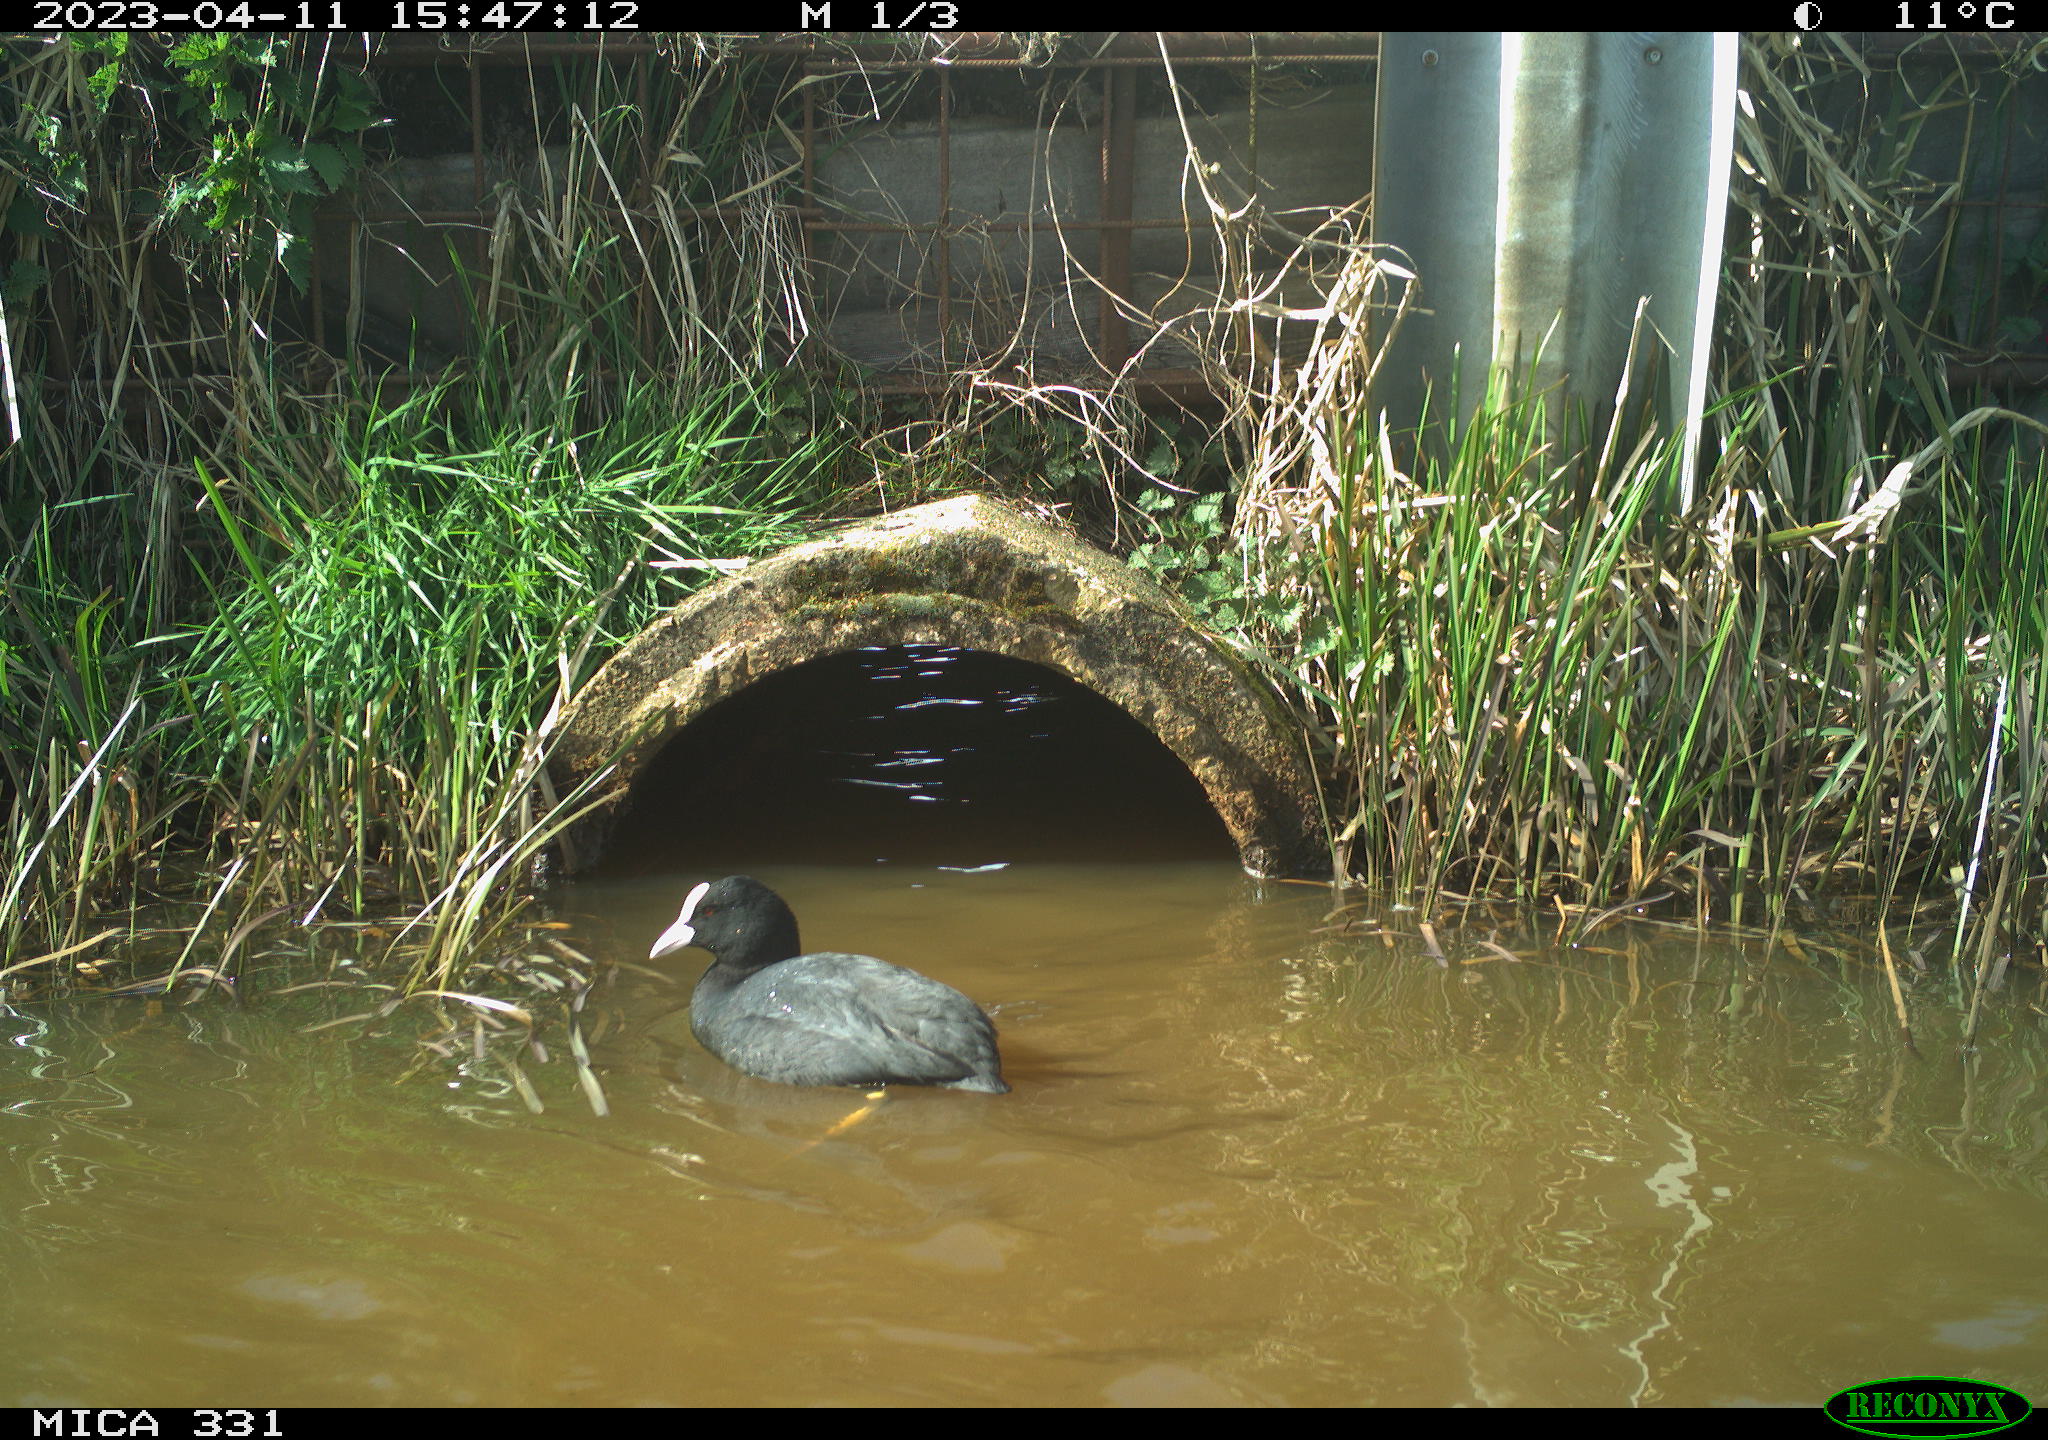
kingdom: Animalia
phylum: Chordata
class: Aves
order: Gruiformes
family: Rallidae
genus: Fulica
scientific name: Fulica atra
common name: Eurasian coot
